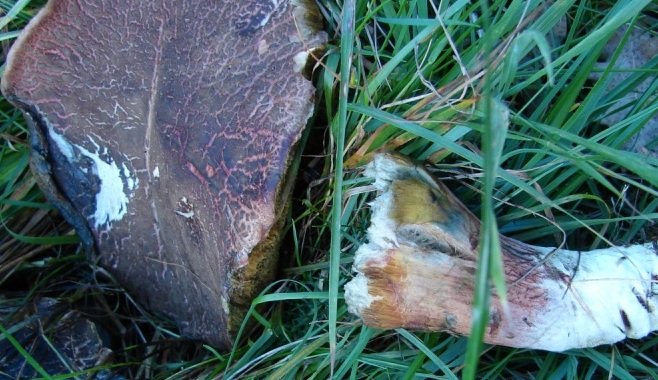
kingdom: Fungi
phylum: Basidiomycota
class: Agaricomycetes
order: Boletales
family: Boletaceae
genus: Xerocomellus
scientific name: Xerocomellus cisalpinus
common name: finsprukken rørhat
